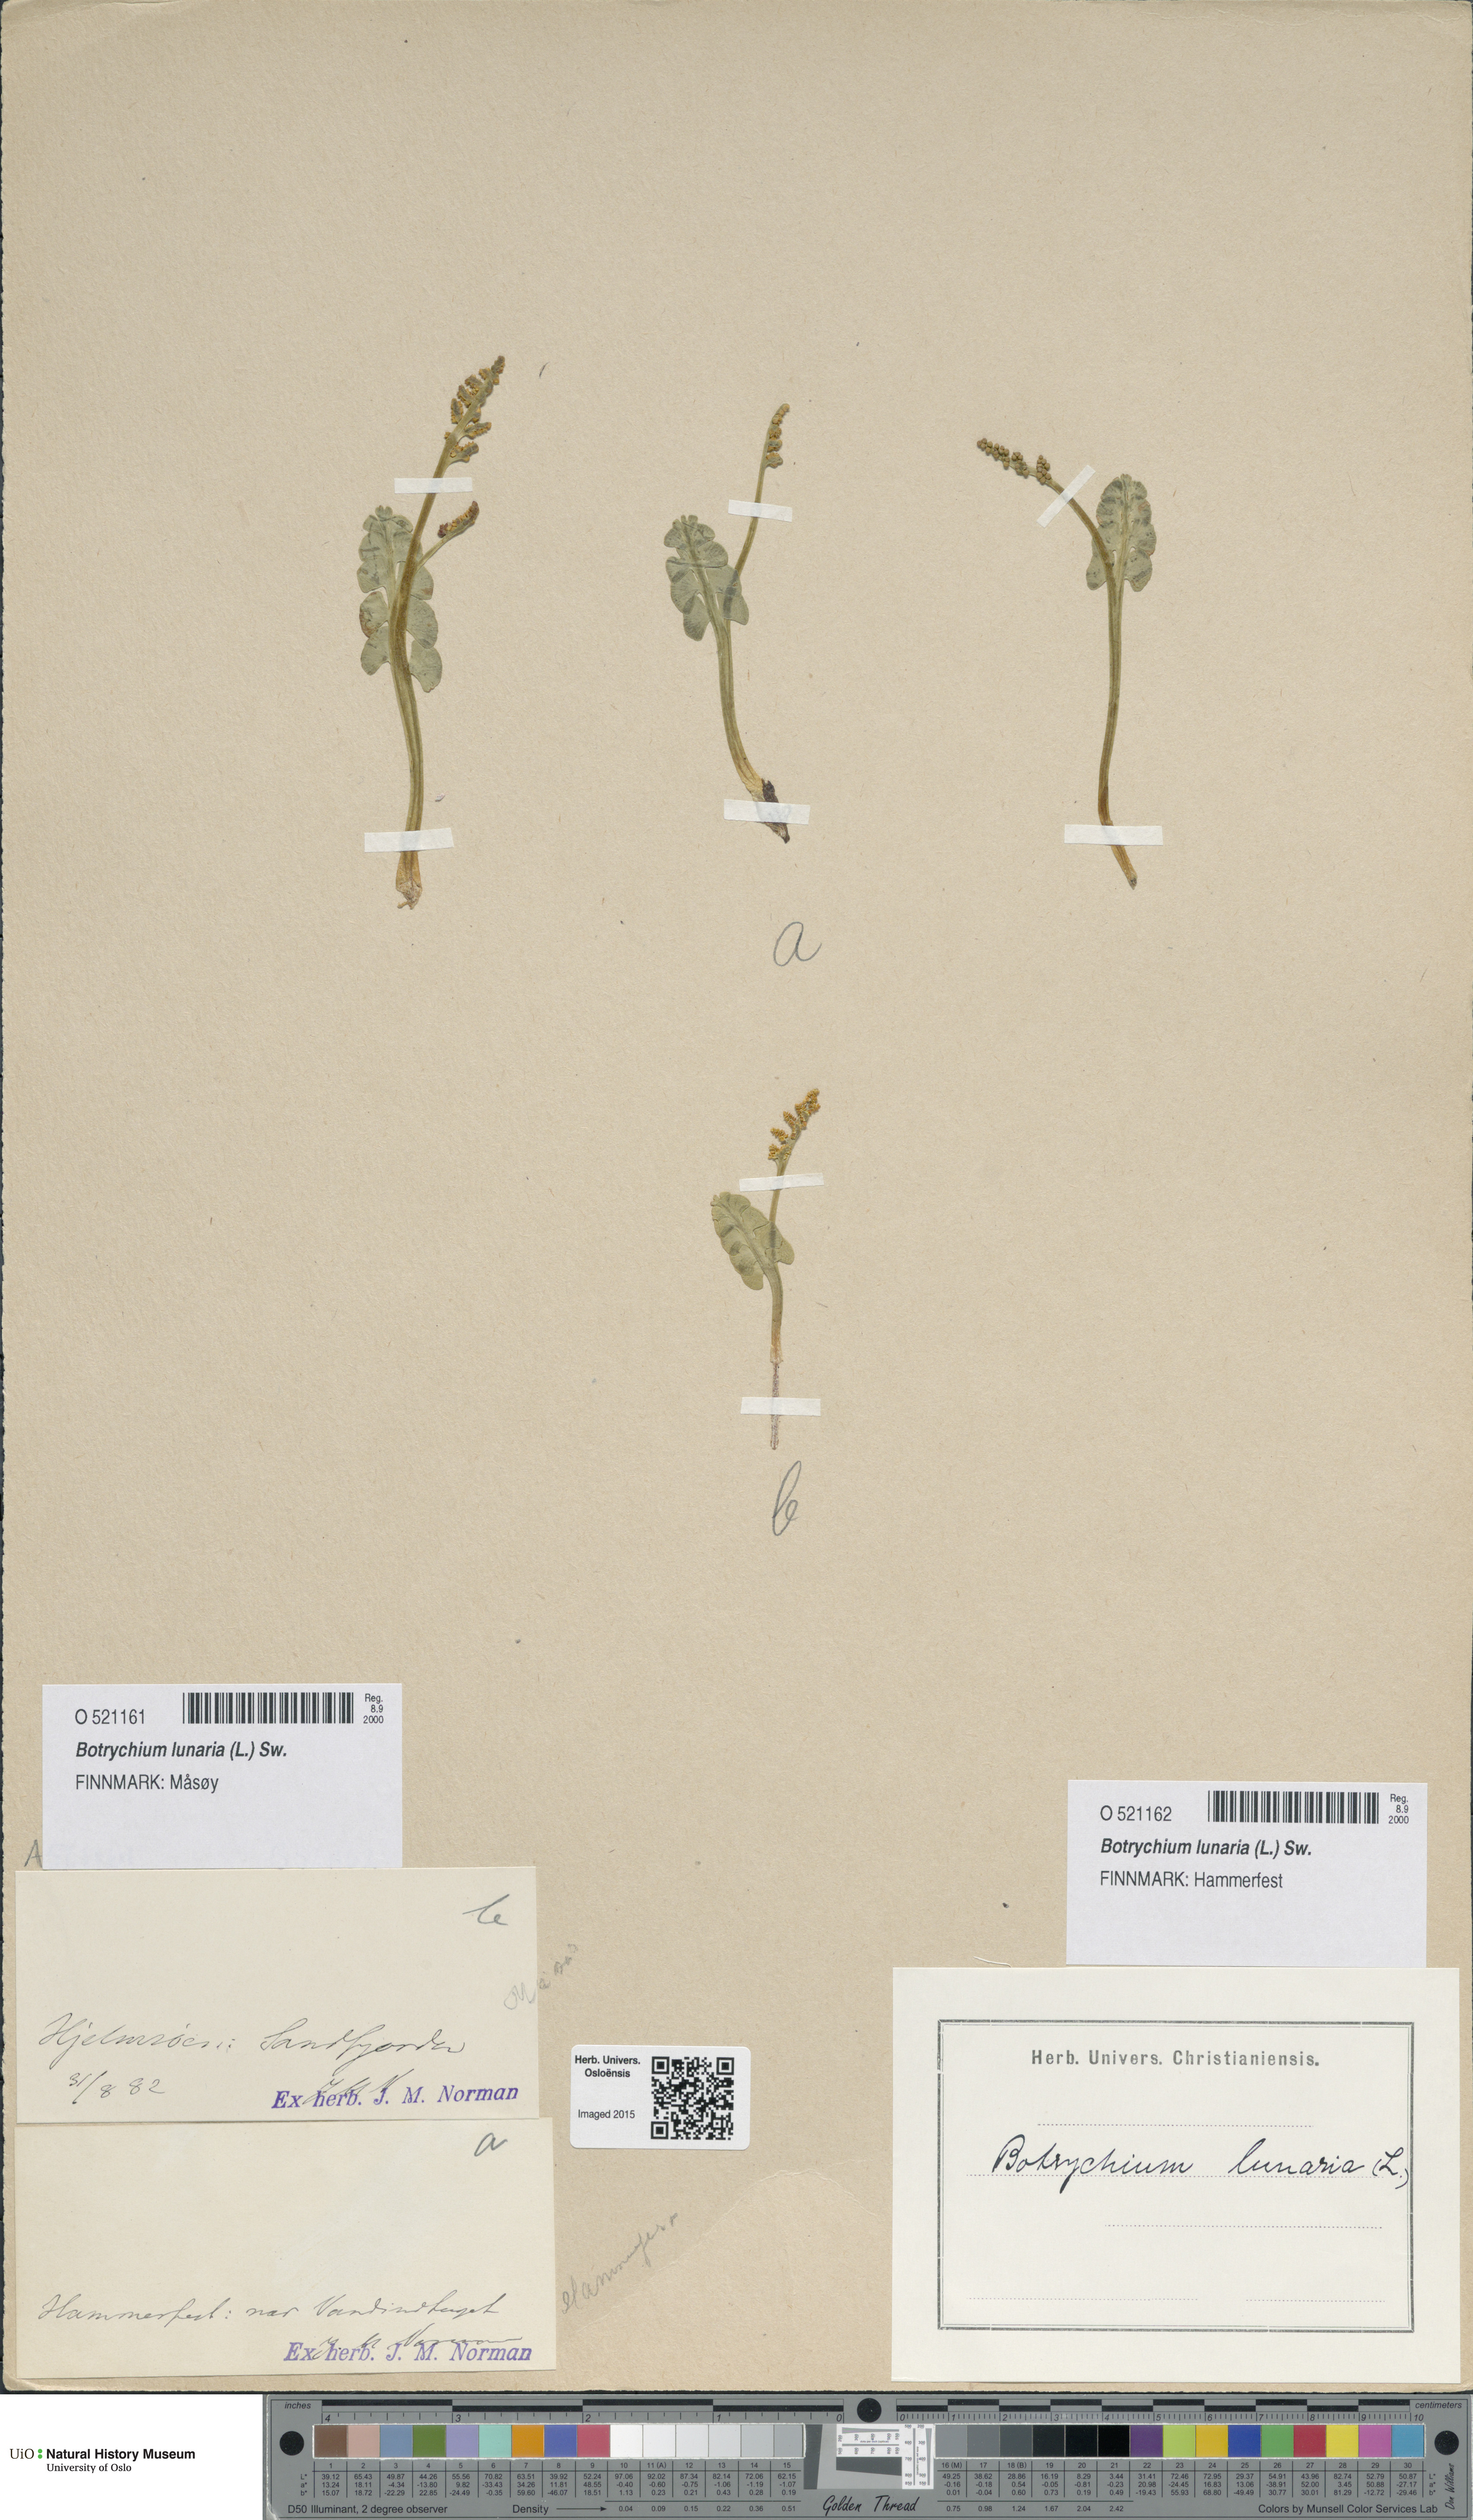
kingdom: Plantae
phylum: Tracheophyta
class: Polypodiopsida
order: Ophioglossales
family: Ophioglossaceae
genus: Botrychium
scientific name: Botrychium lunaria
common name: Moonwort
